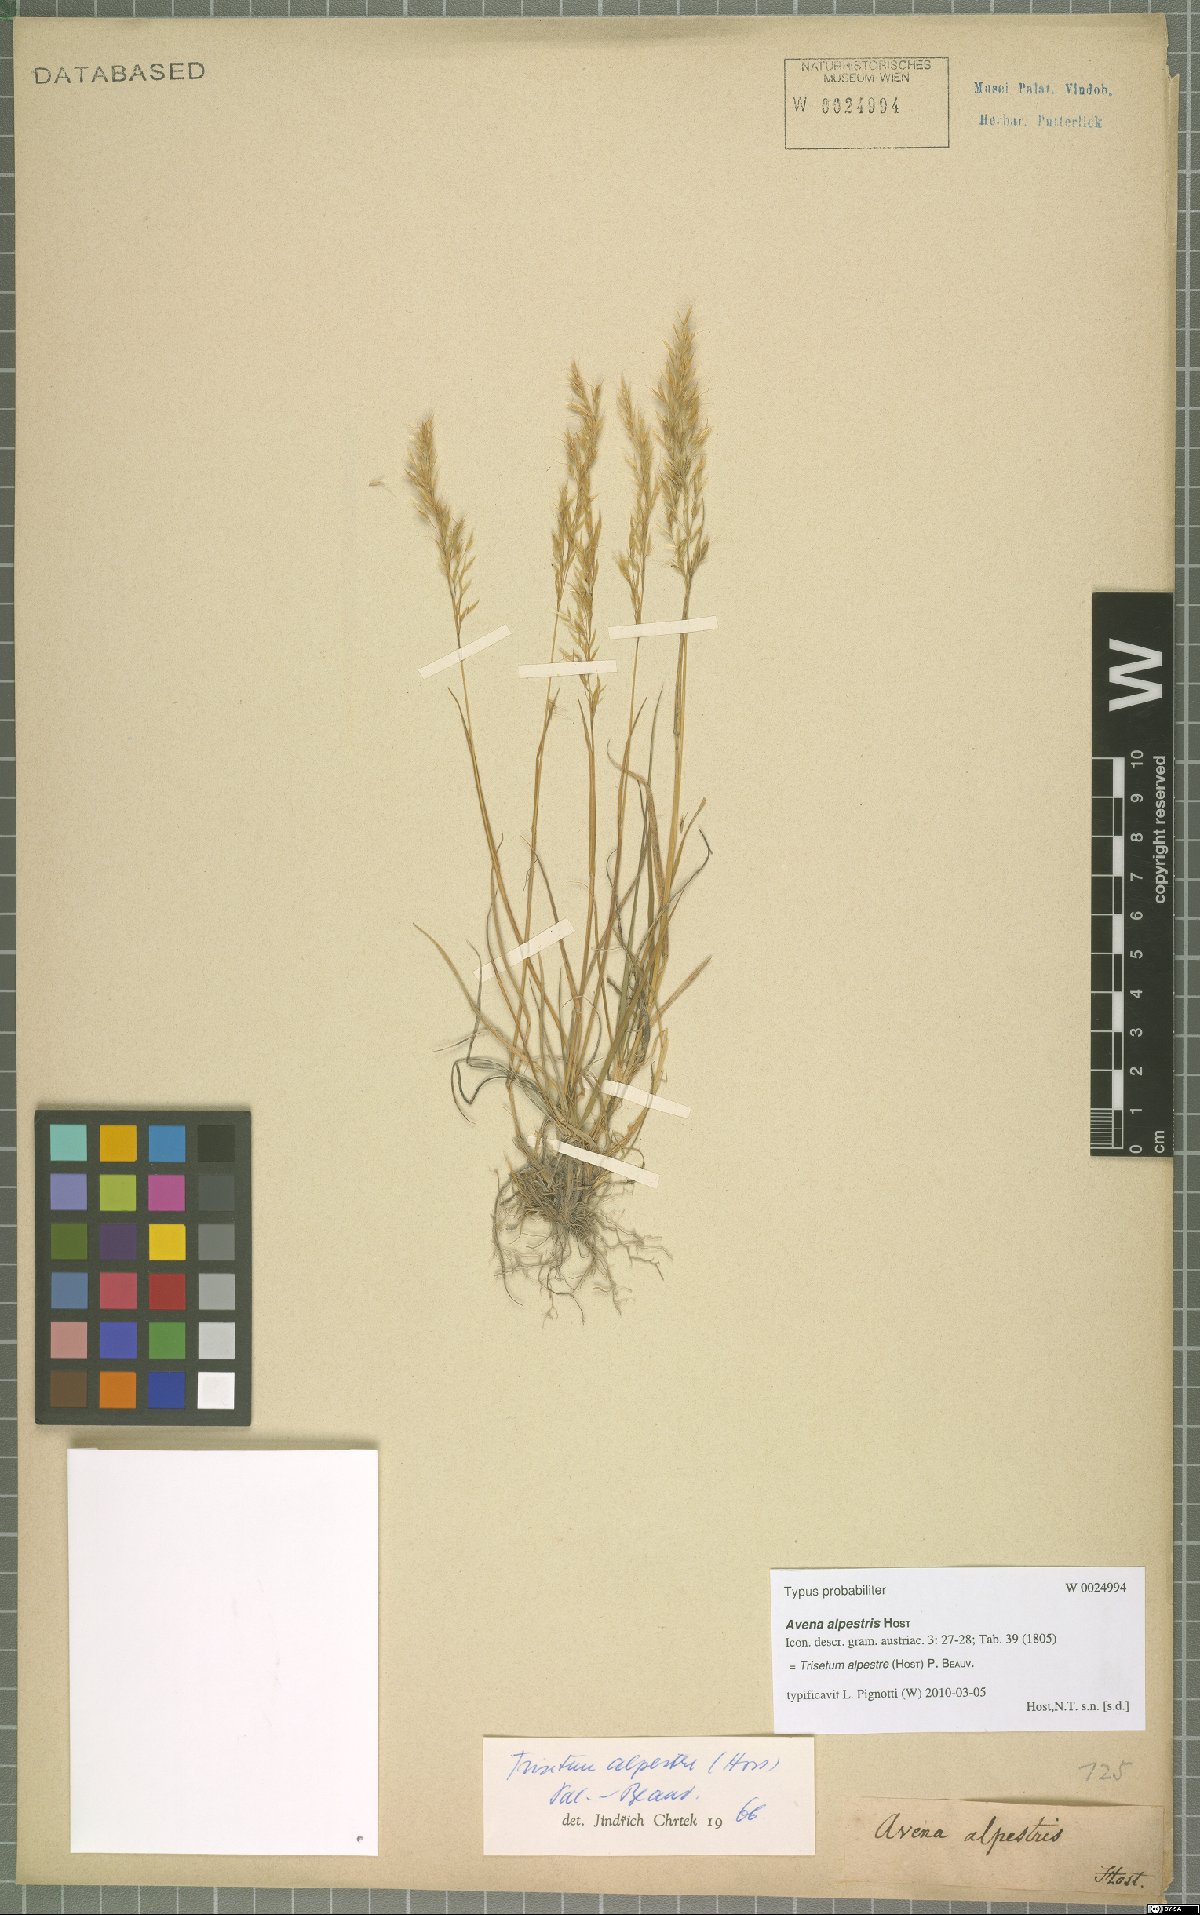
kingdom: Plantae
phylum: Tracheophyta
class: Liliopsida
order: Poales
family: Poaceae
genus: Trisetum
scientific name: Trisetum alpestre
